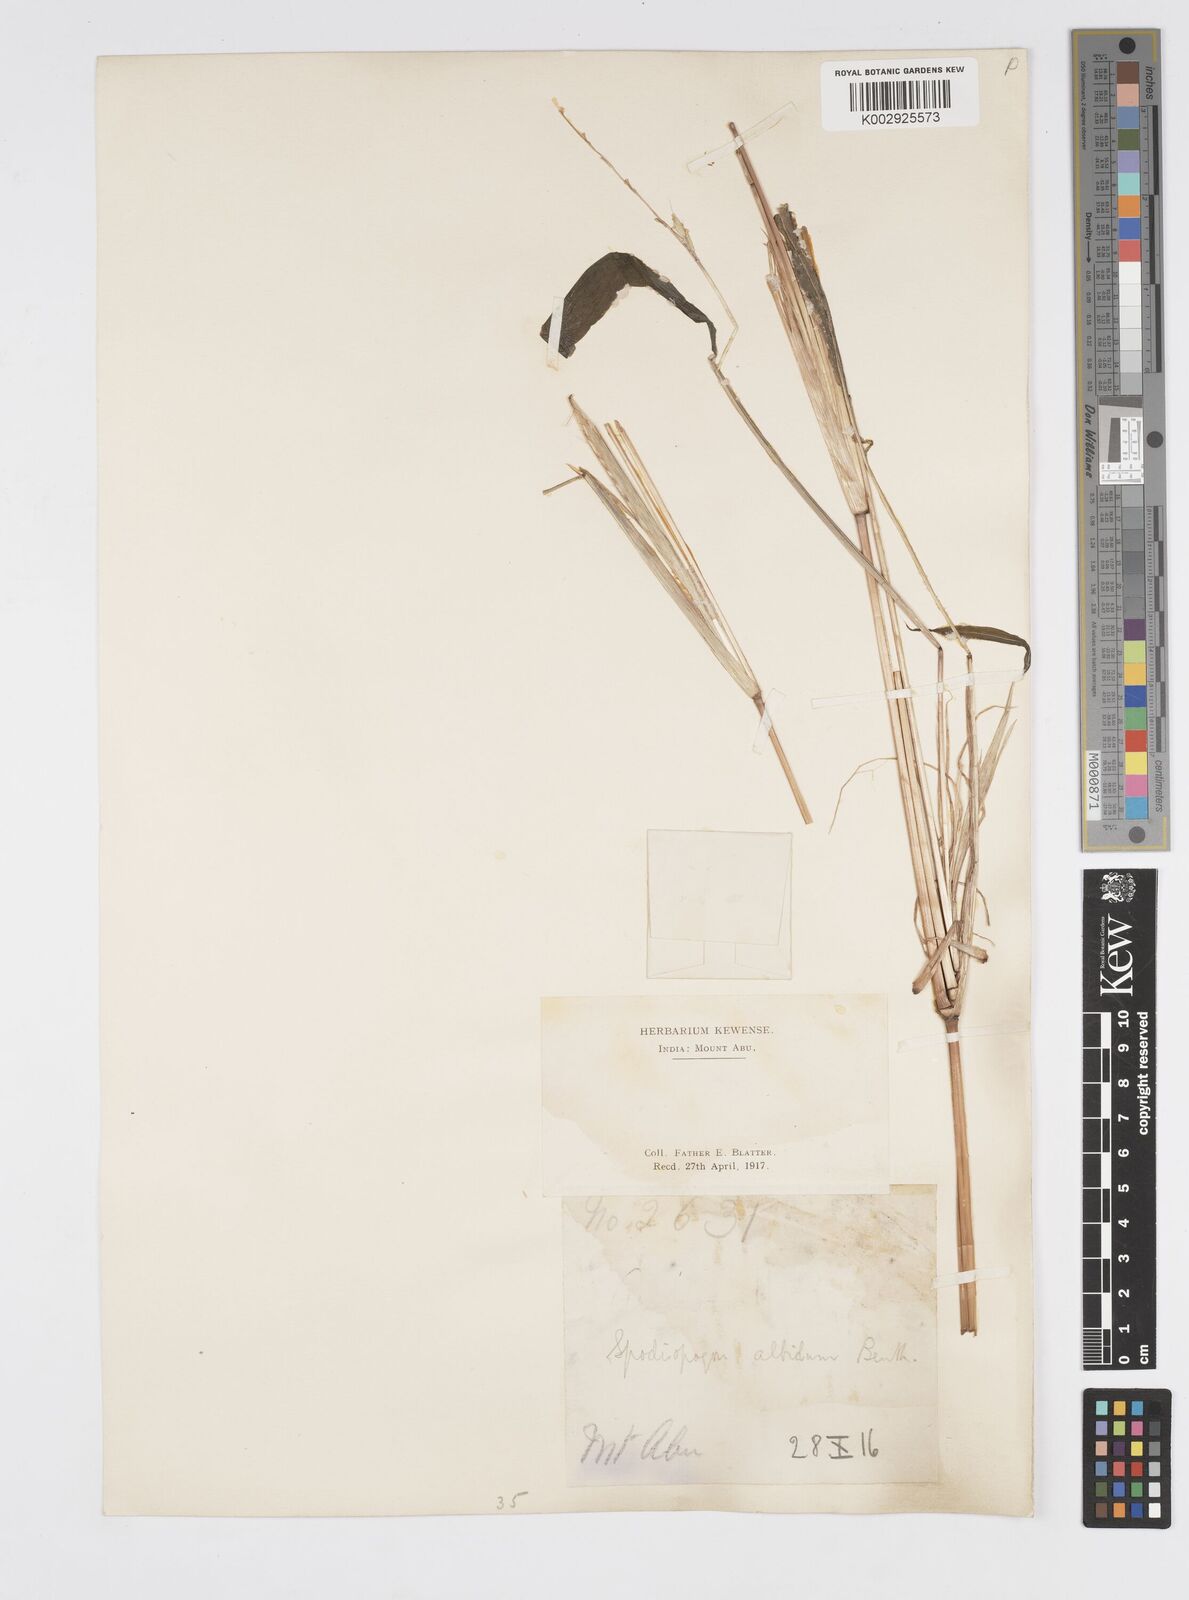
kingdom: Plantae
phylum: Tracheophyta
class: Liliopsida
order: Poales
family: Poaceae
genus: Spodiopogon
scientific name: Spodiopogon rhizophorus
